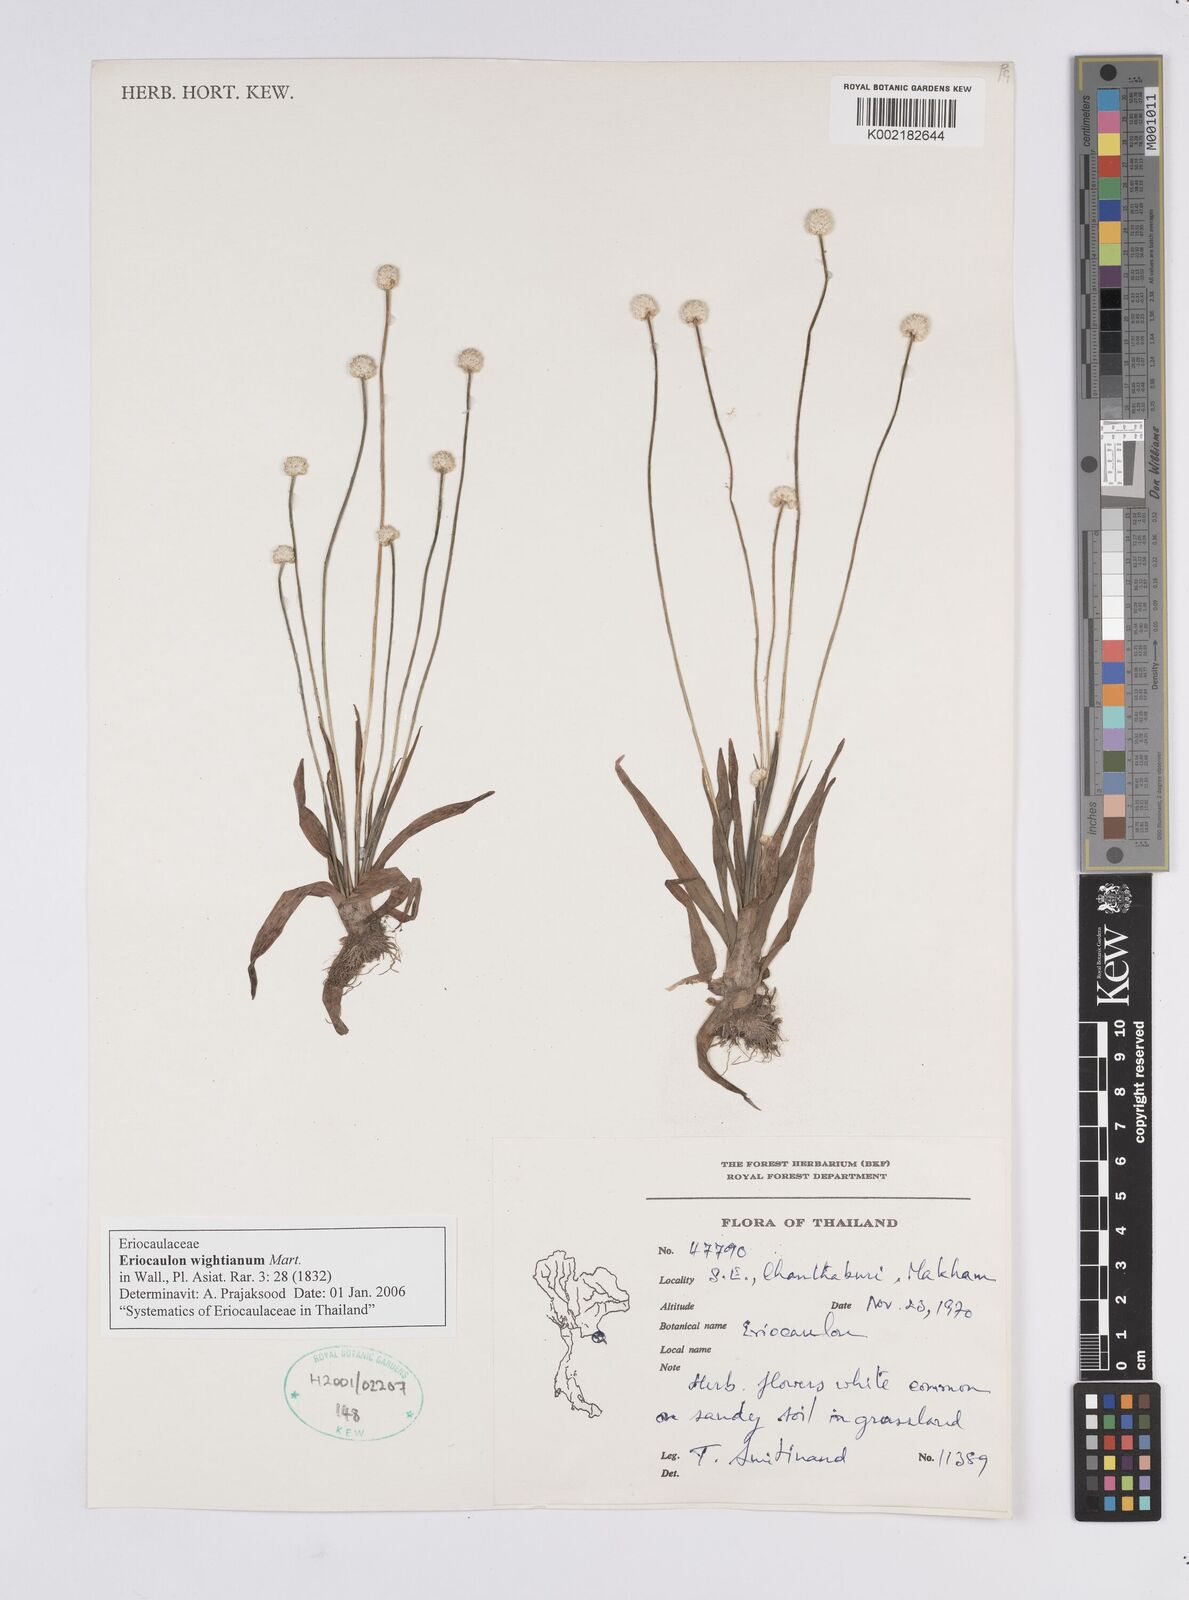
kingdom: Plantae
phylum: Tracheophyta
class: Liliopsida
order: Poales
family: Eriocaulaceae
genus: Eriocaulon
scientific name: Eriocaulon wightianum
